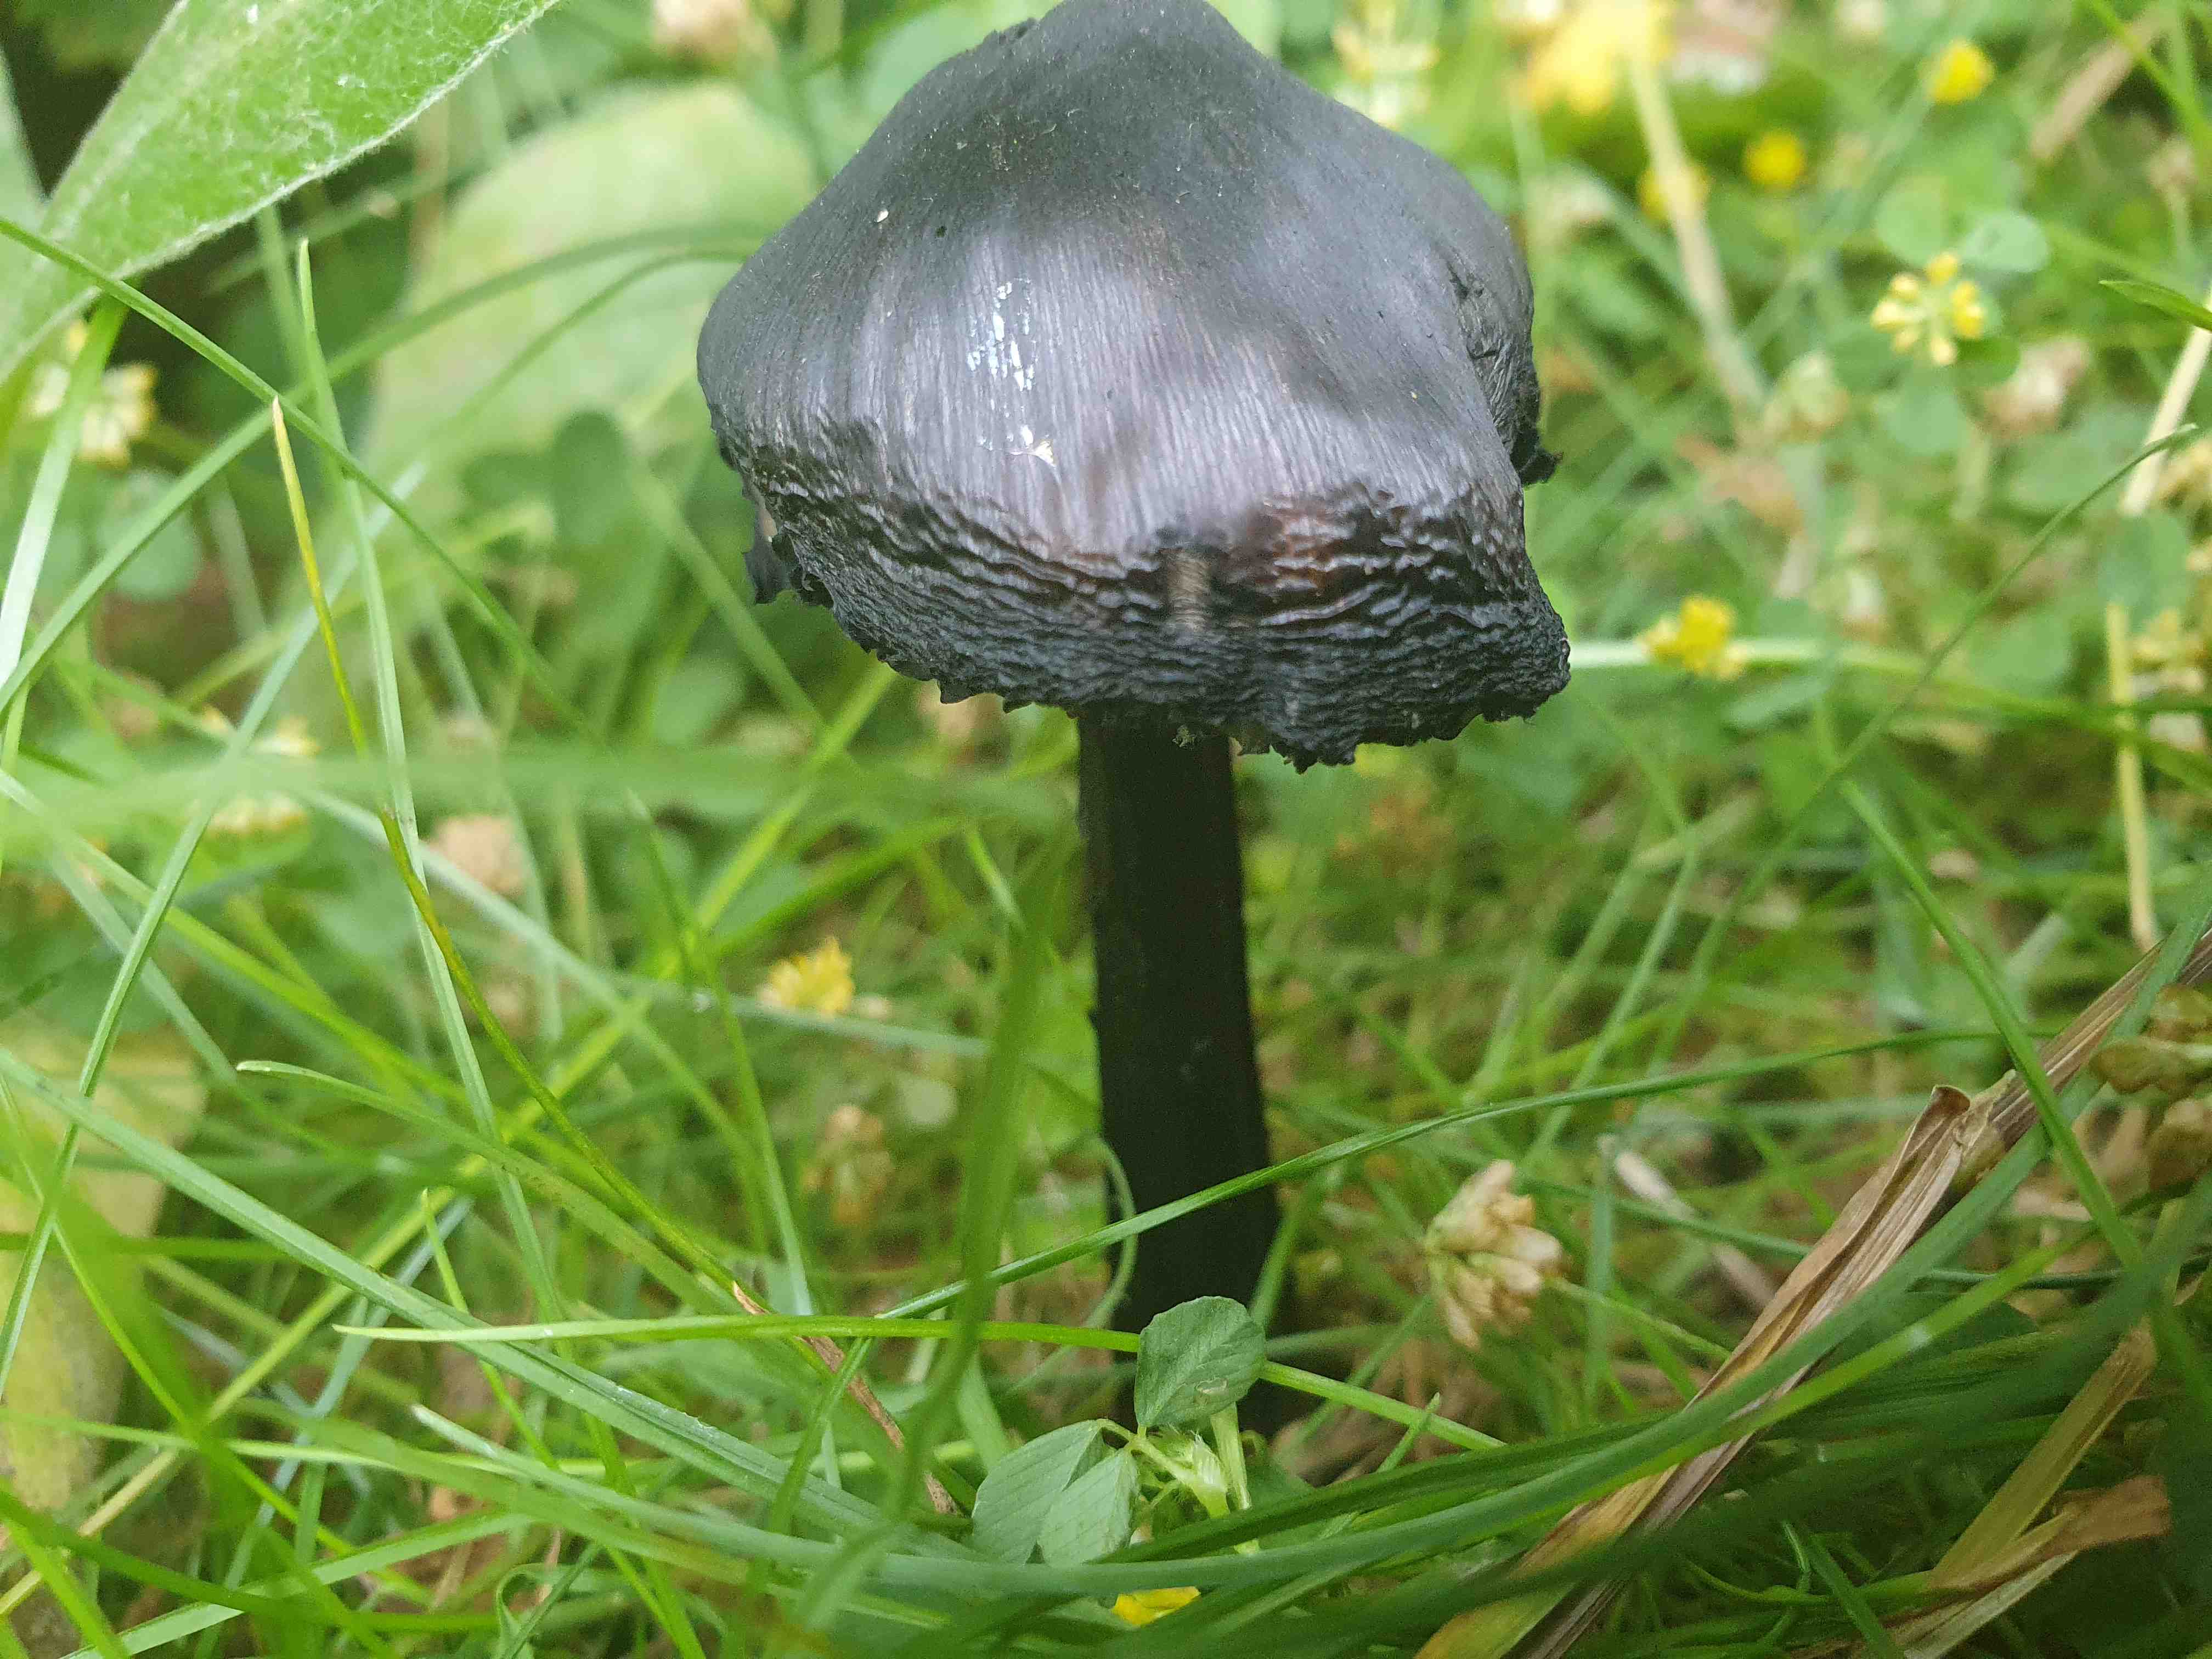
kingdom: Fungi
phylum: Basidiomycota
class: Agaricomycetes
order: Agaricales
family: Hygrophoraceae
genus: Hygrocybe
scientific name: Hygrocybe conica
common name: kegle-vokshat
